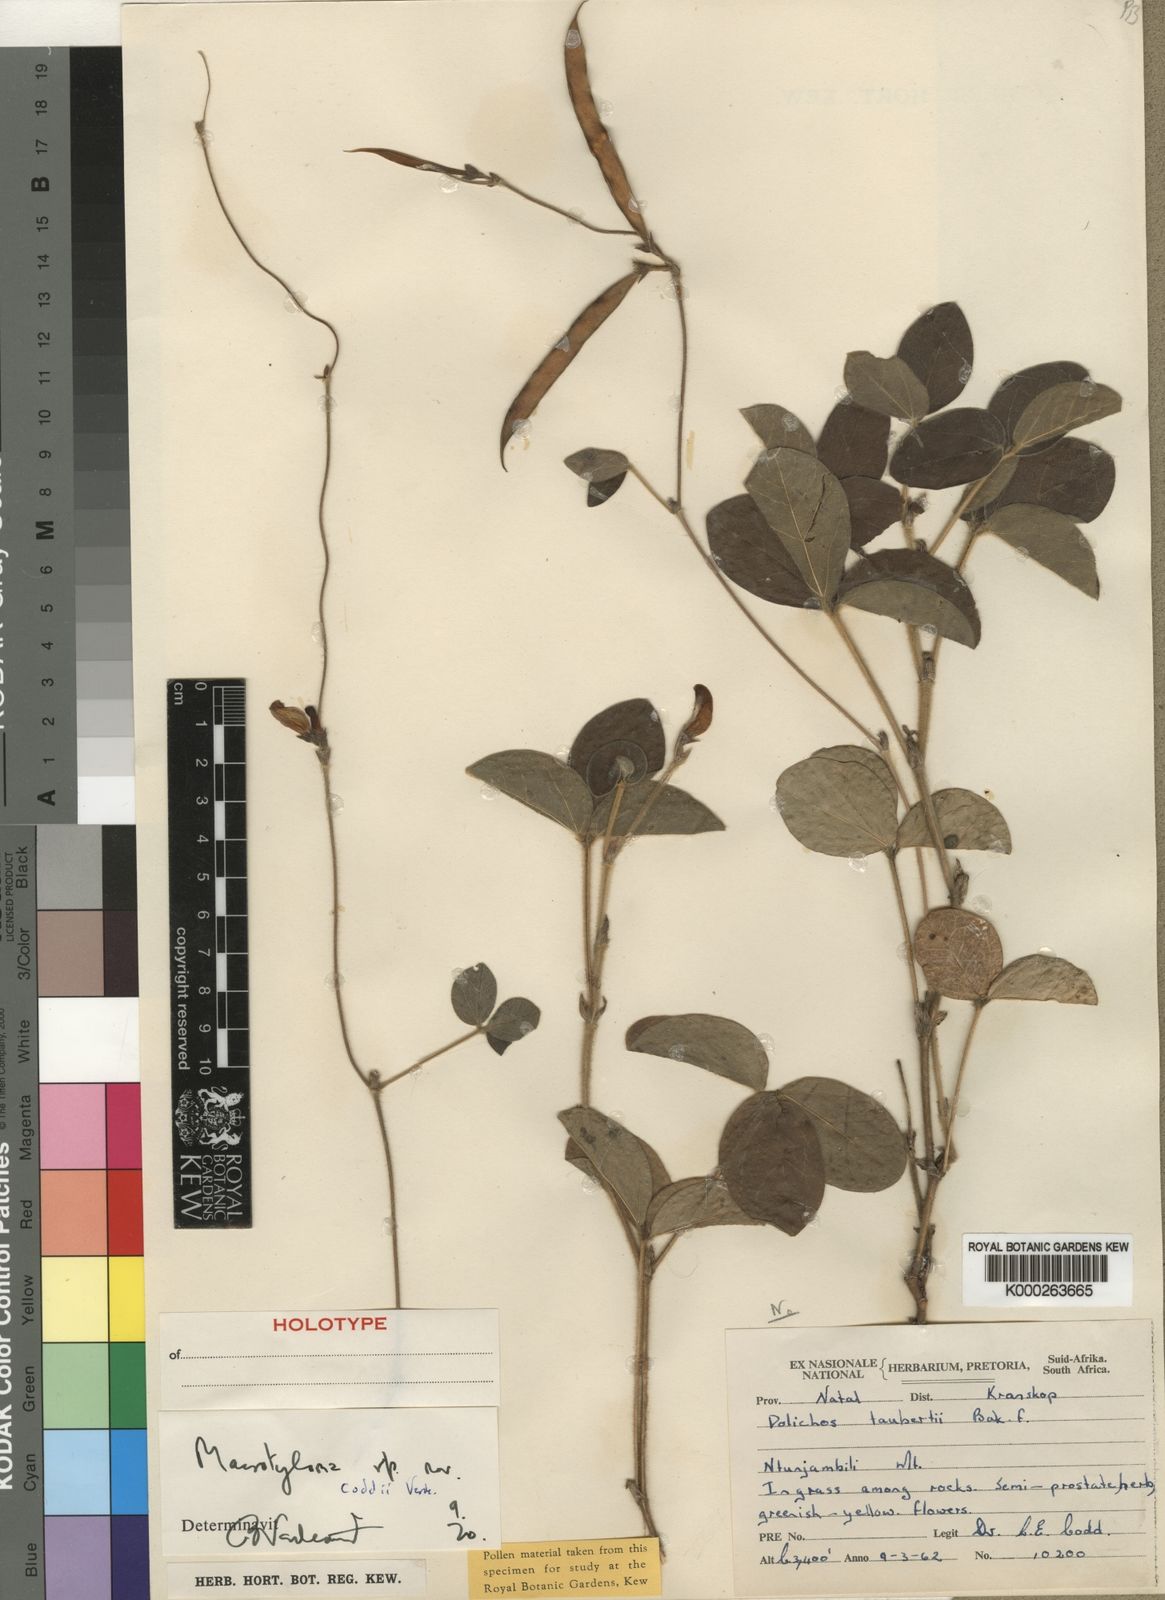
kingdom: Plantae
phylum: Tracheophyta
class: Magnoliopsida
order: Fabales
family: Fabaceae
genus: Macrotyloma
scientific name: Macrotyloma coddii
